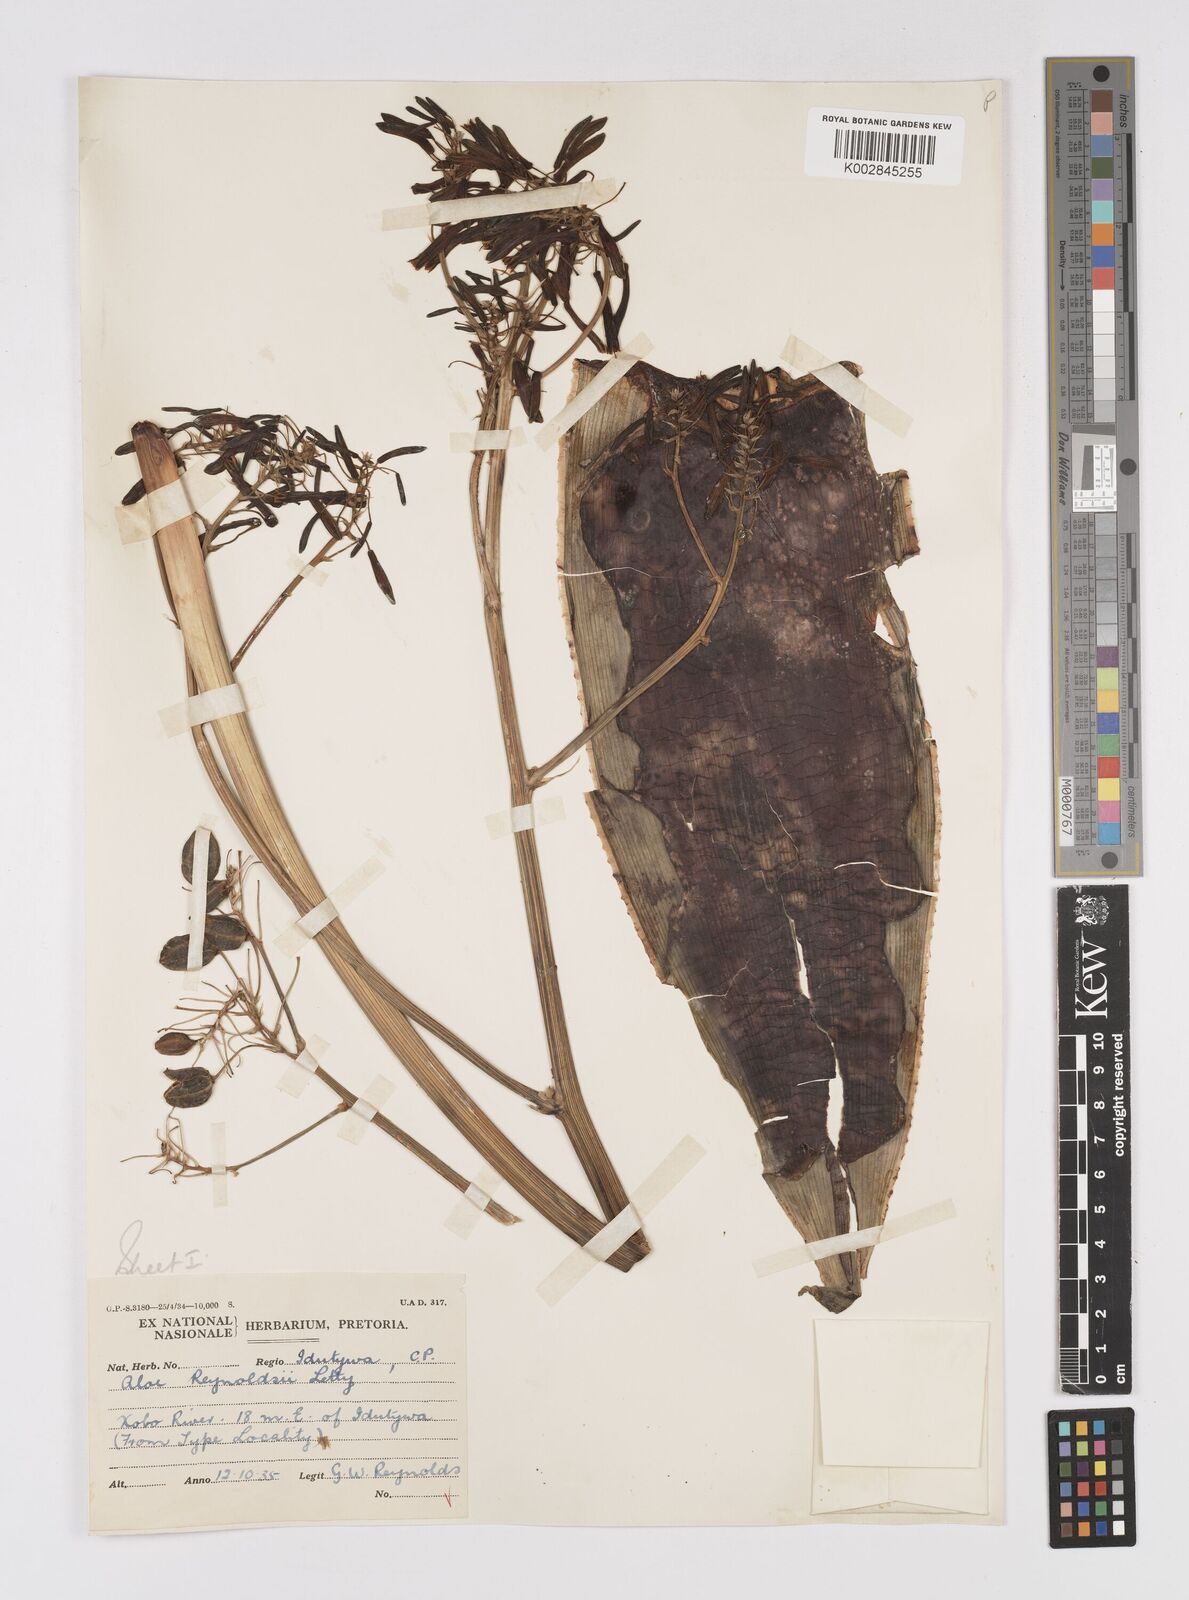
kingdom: Plantae
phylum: Tracheophyta
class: Liliopsida
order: Asparagales
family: Asphodelaceae
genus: Aloe
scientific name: Aloe reynoldsii
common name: Yellow spineless aloe
